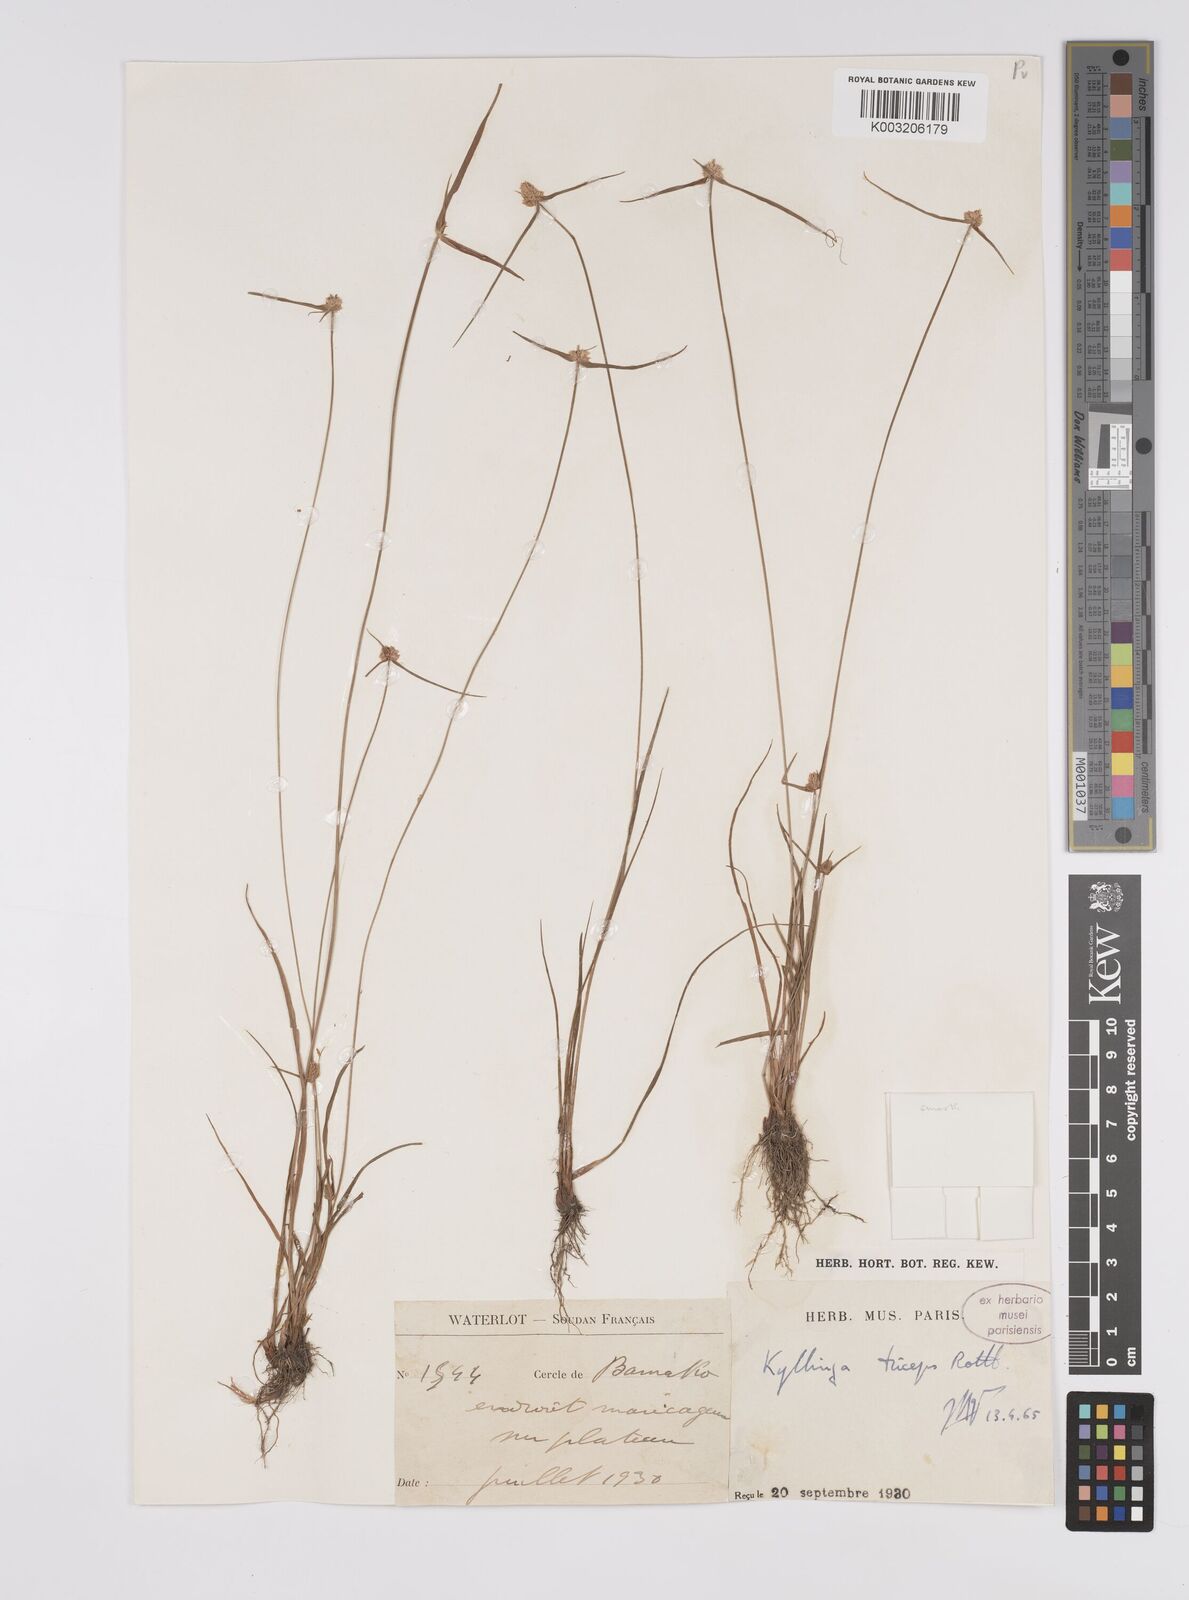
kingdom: Plantae
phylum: Tracheophyta
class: Liliopsida
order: Poales
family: Cyperaceae
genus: Cyperus
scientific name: Cyperus
